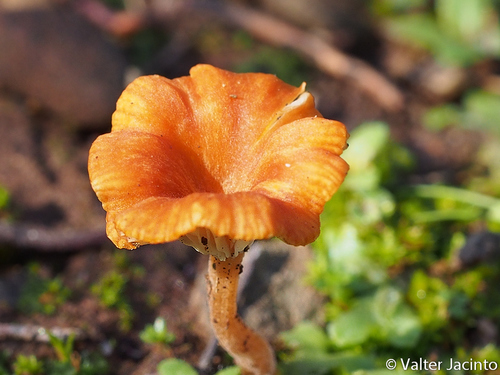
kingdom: Fungi
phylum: Basidiomycota
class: Agaricomycetes
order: Hymenochaetales
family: Rickenellaceae
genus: Contumyces
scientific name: Contumyces vesuvianus
